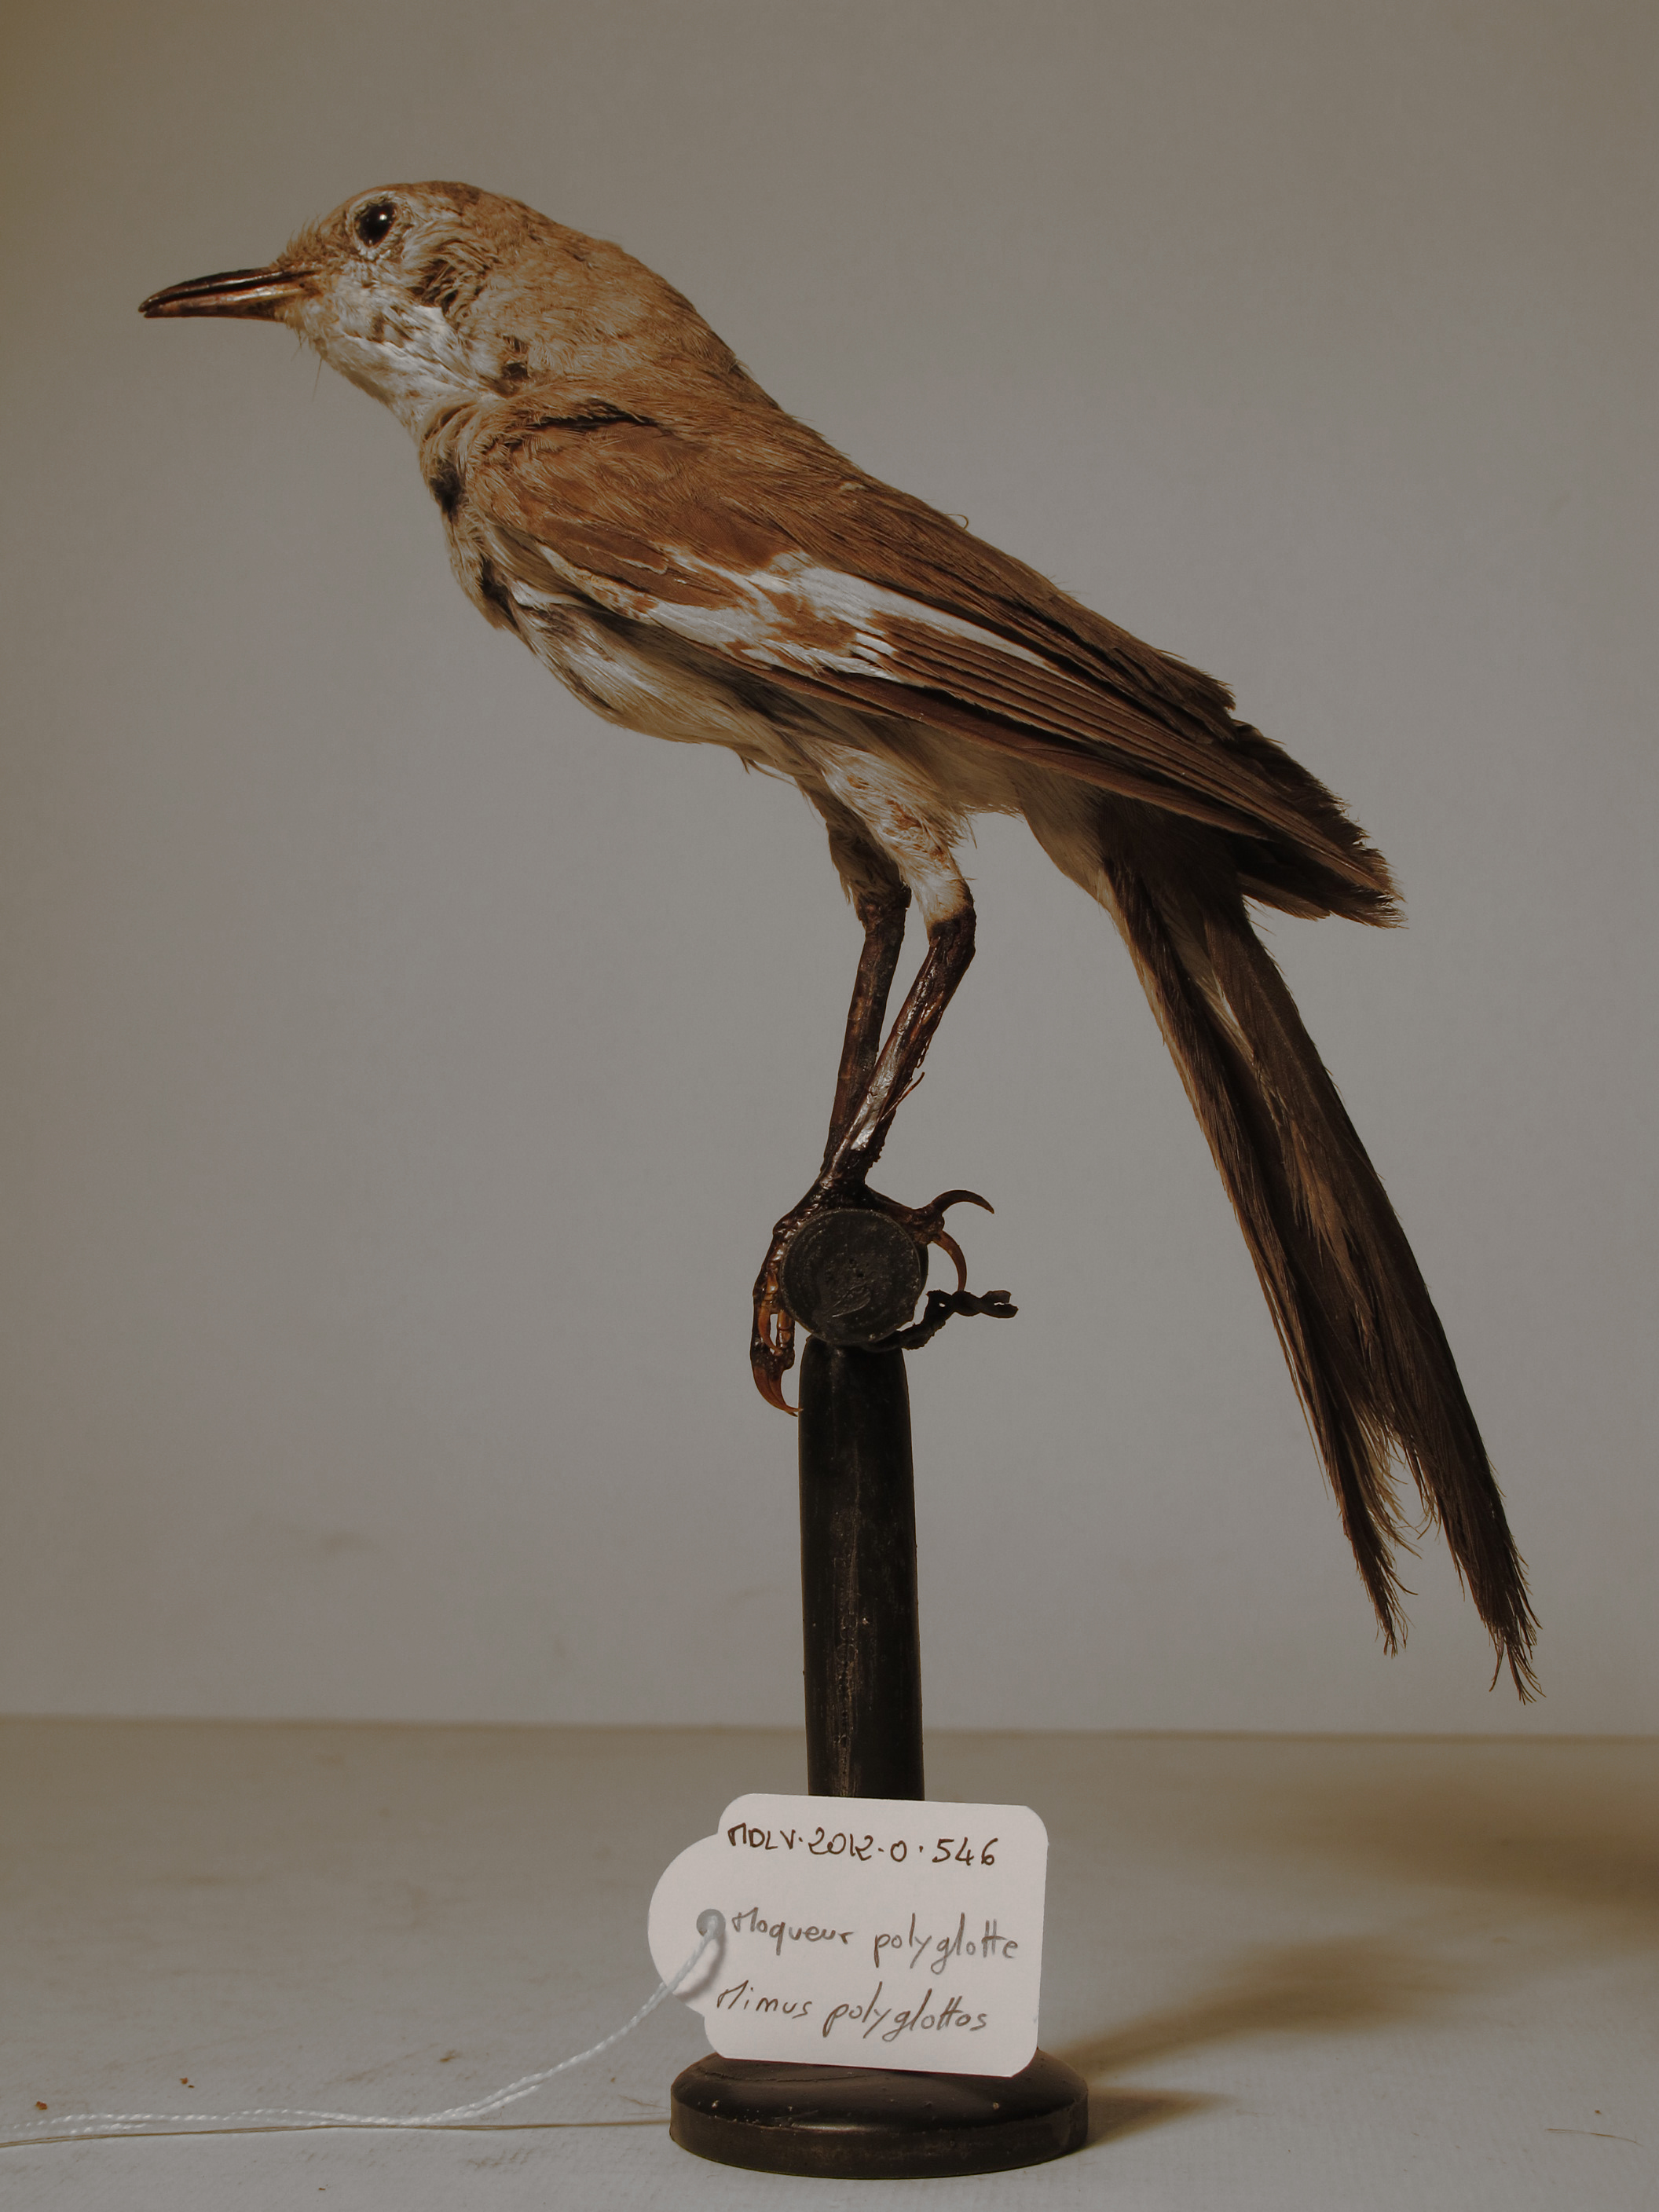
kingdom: Animalia
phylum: Chordata
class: Aves
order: Passeriformes
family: Mimidae
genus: Mimus
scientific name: Mimus polyglottos
